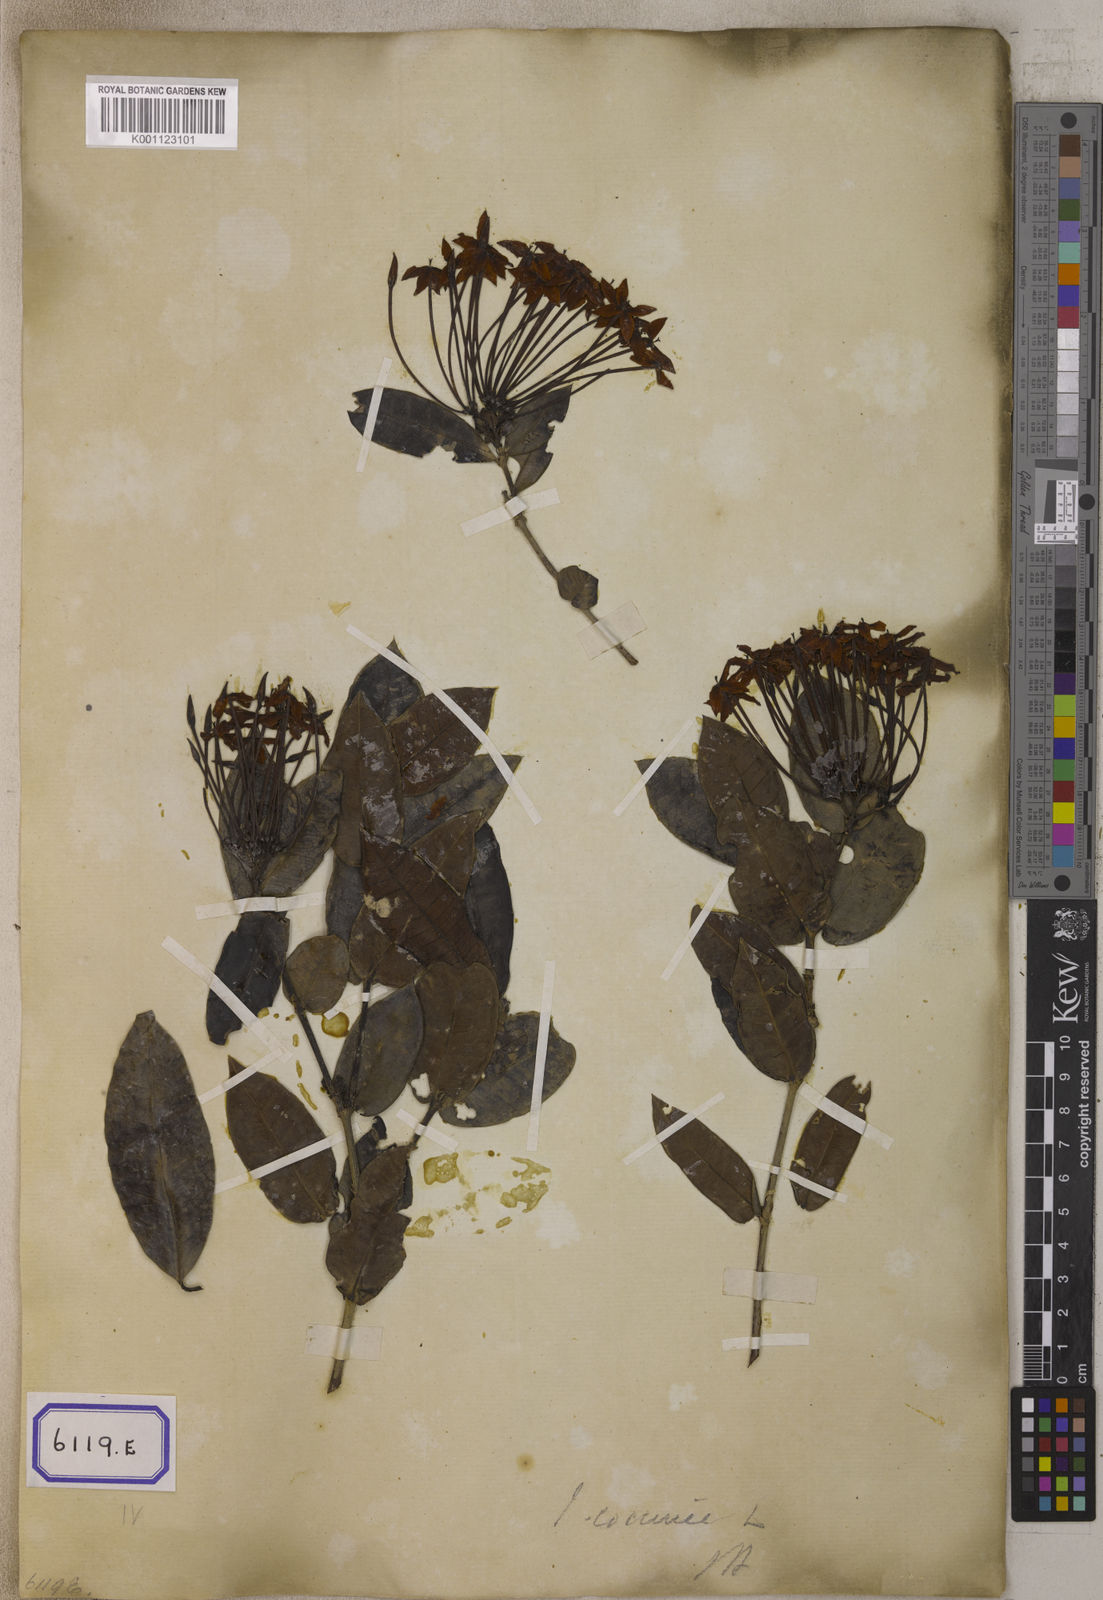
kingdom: Plantae
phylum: Tracheophyta
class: Magnoliopsida
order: Gentianales
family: Rubiaceae
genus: Ixora
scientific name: Ixora
